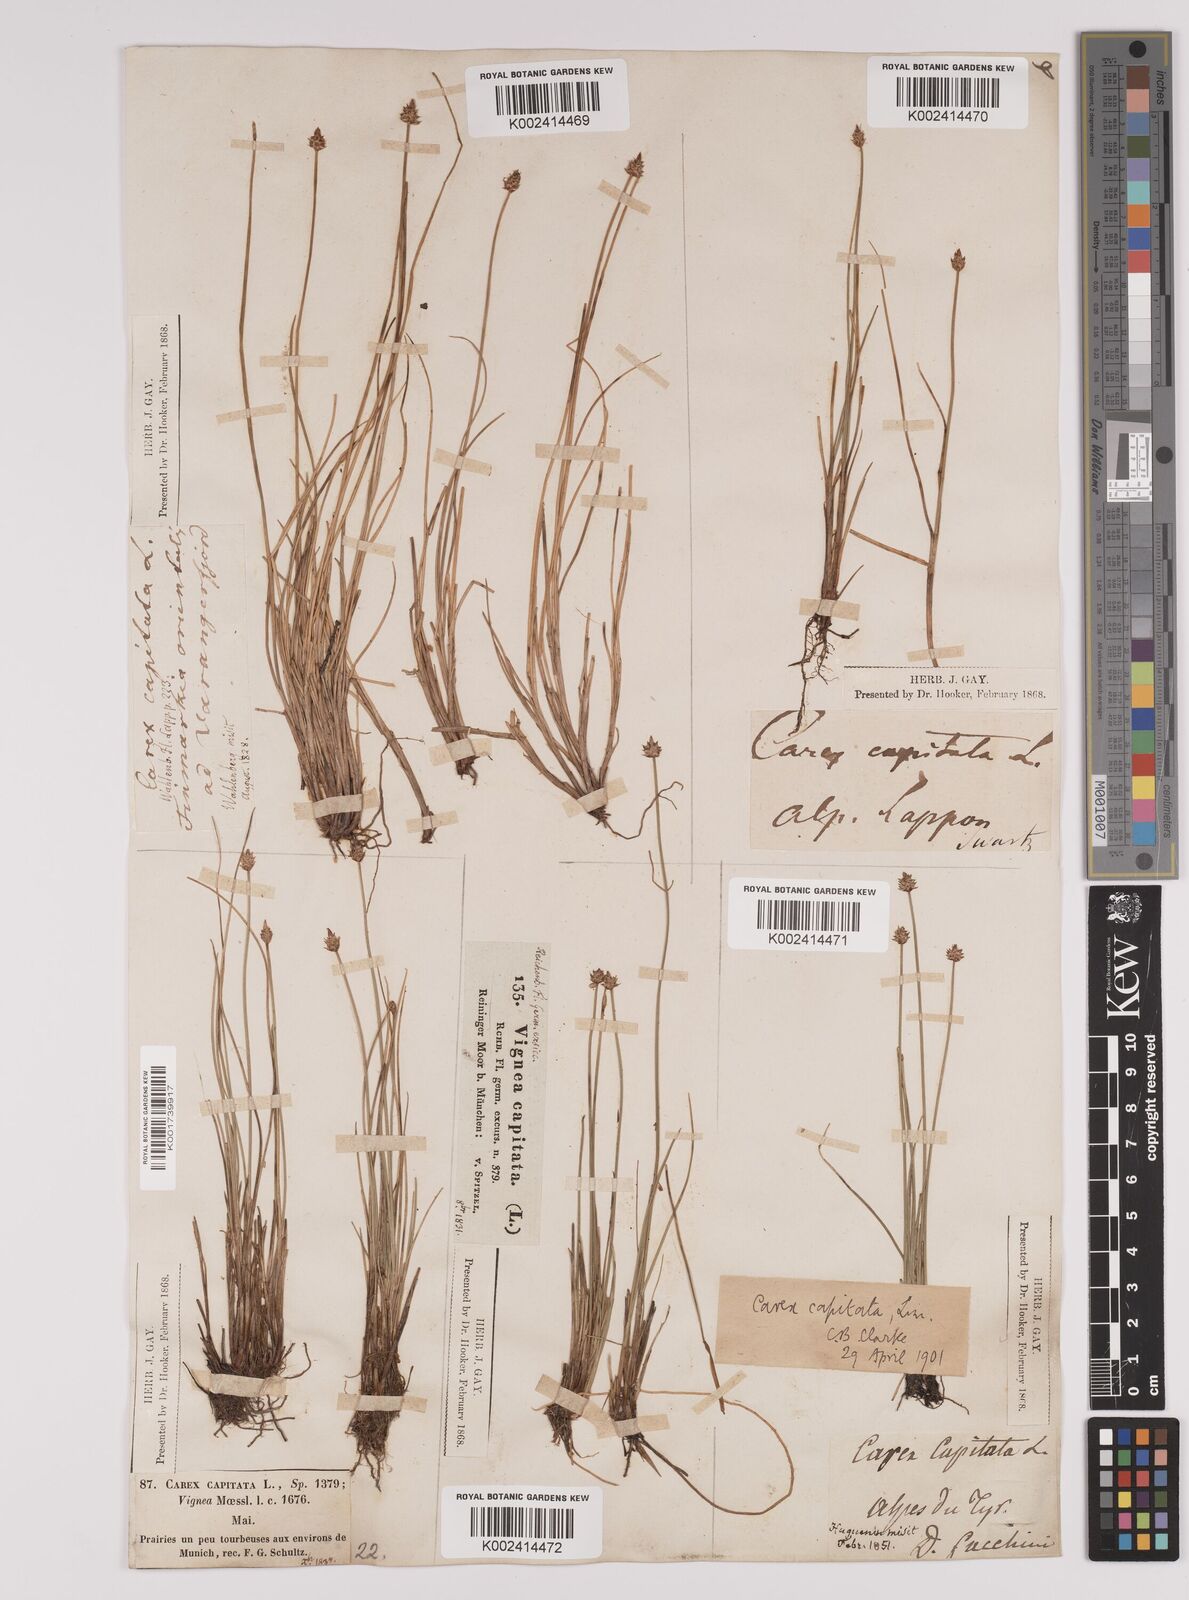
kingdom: Plantae
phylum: Tracheophyta
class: Liliopsida
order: Poales
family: Cyperaceae
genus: Carex
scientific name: Carex capitata
